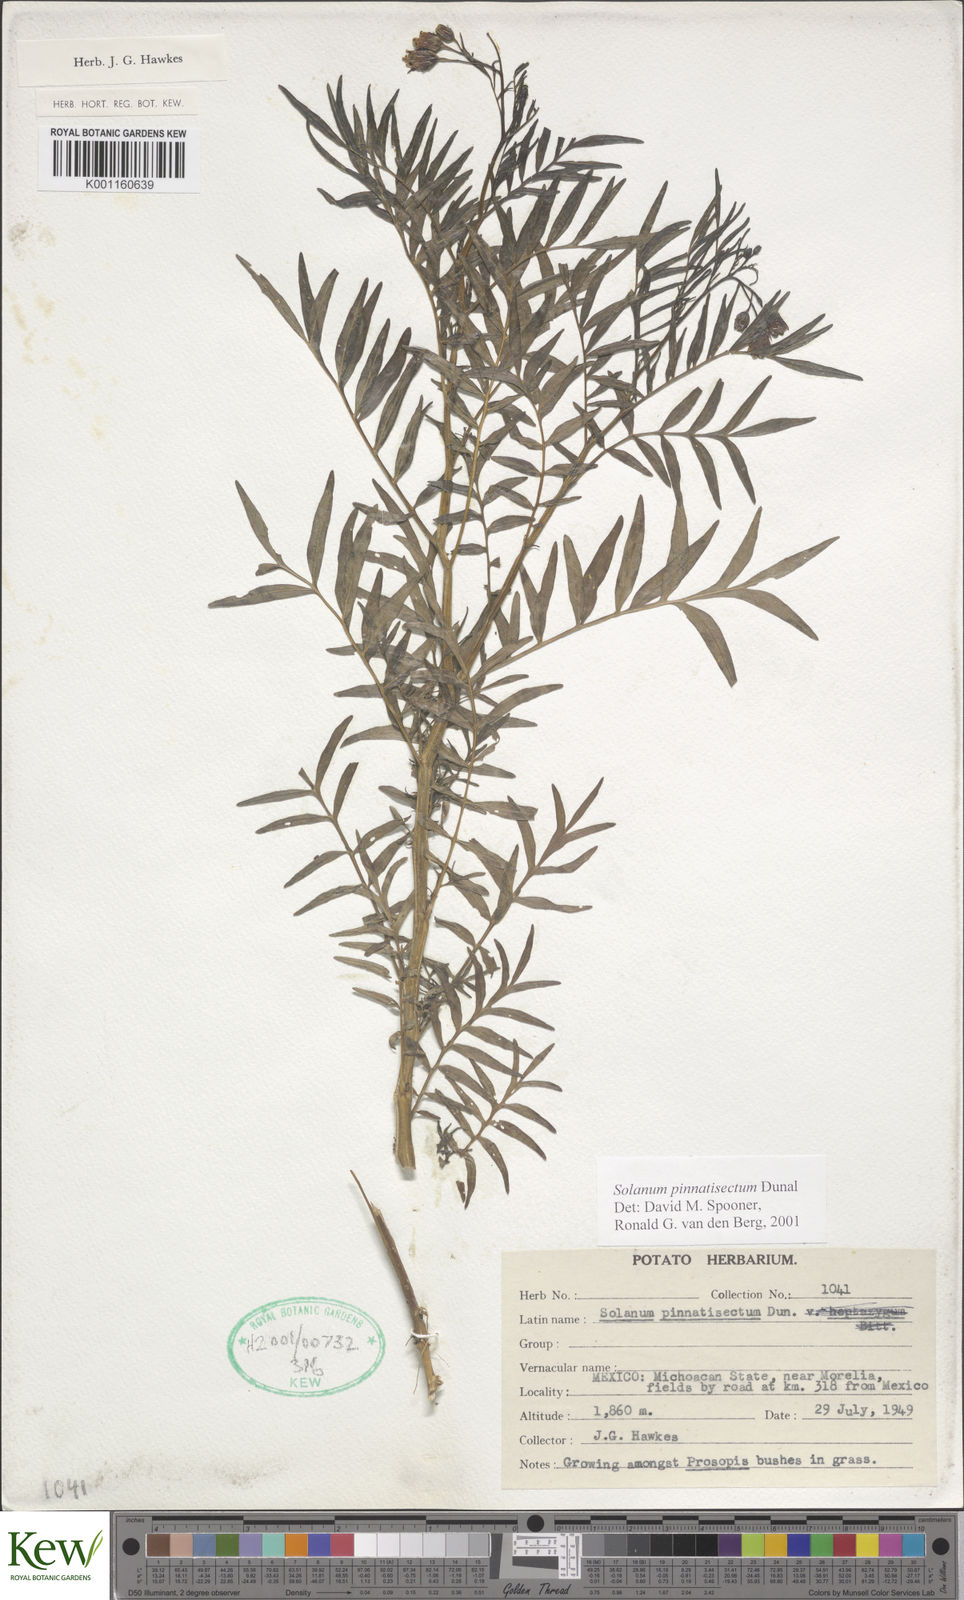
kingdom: Plantae
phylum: Tracheophyta
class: Magnoliopsida
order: Solanales
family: Solanaceae
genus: Solanum
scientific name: Solanum pinnatisectum
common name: Tansyleaf nightshade
